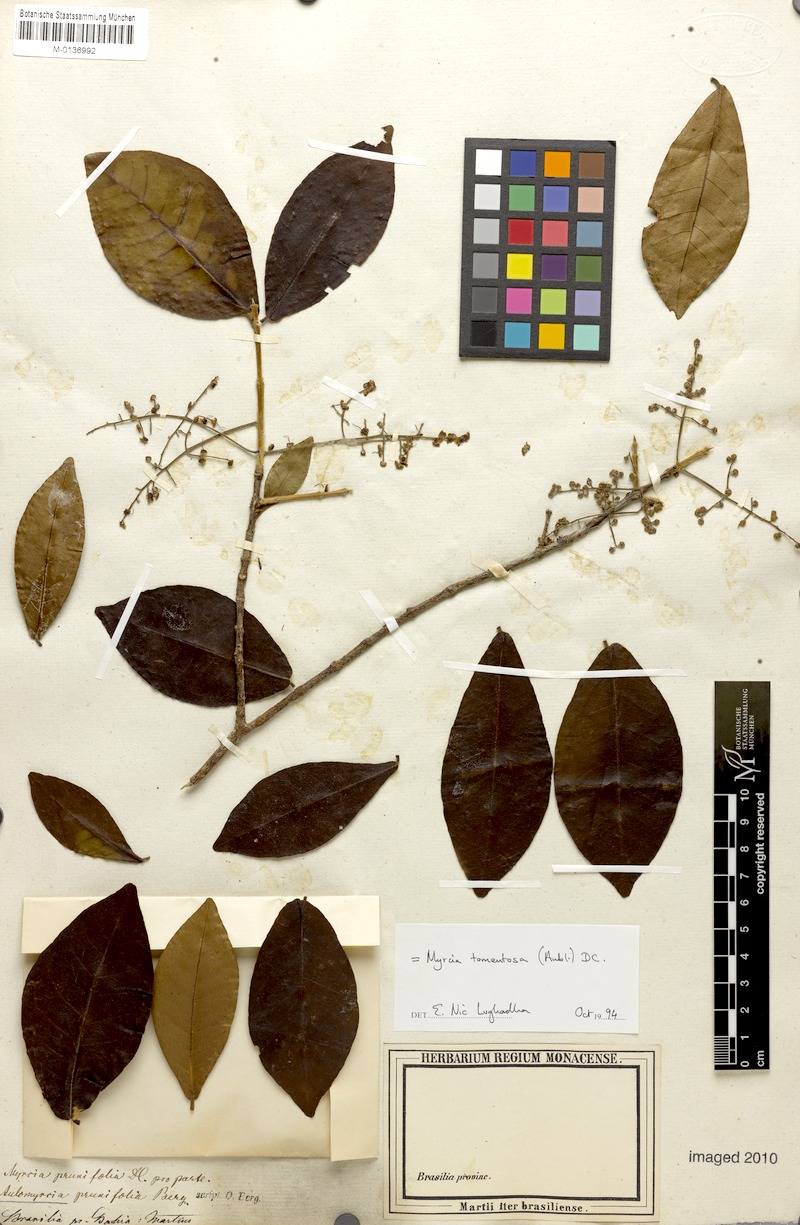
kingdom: Plantae
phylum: Tracheophyta
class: Magnoliopsida
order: Myrtales
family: Myrtaceae
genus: Myrcia
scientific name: Myrcia tomentosa
